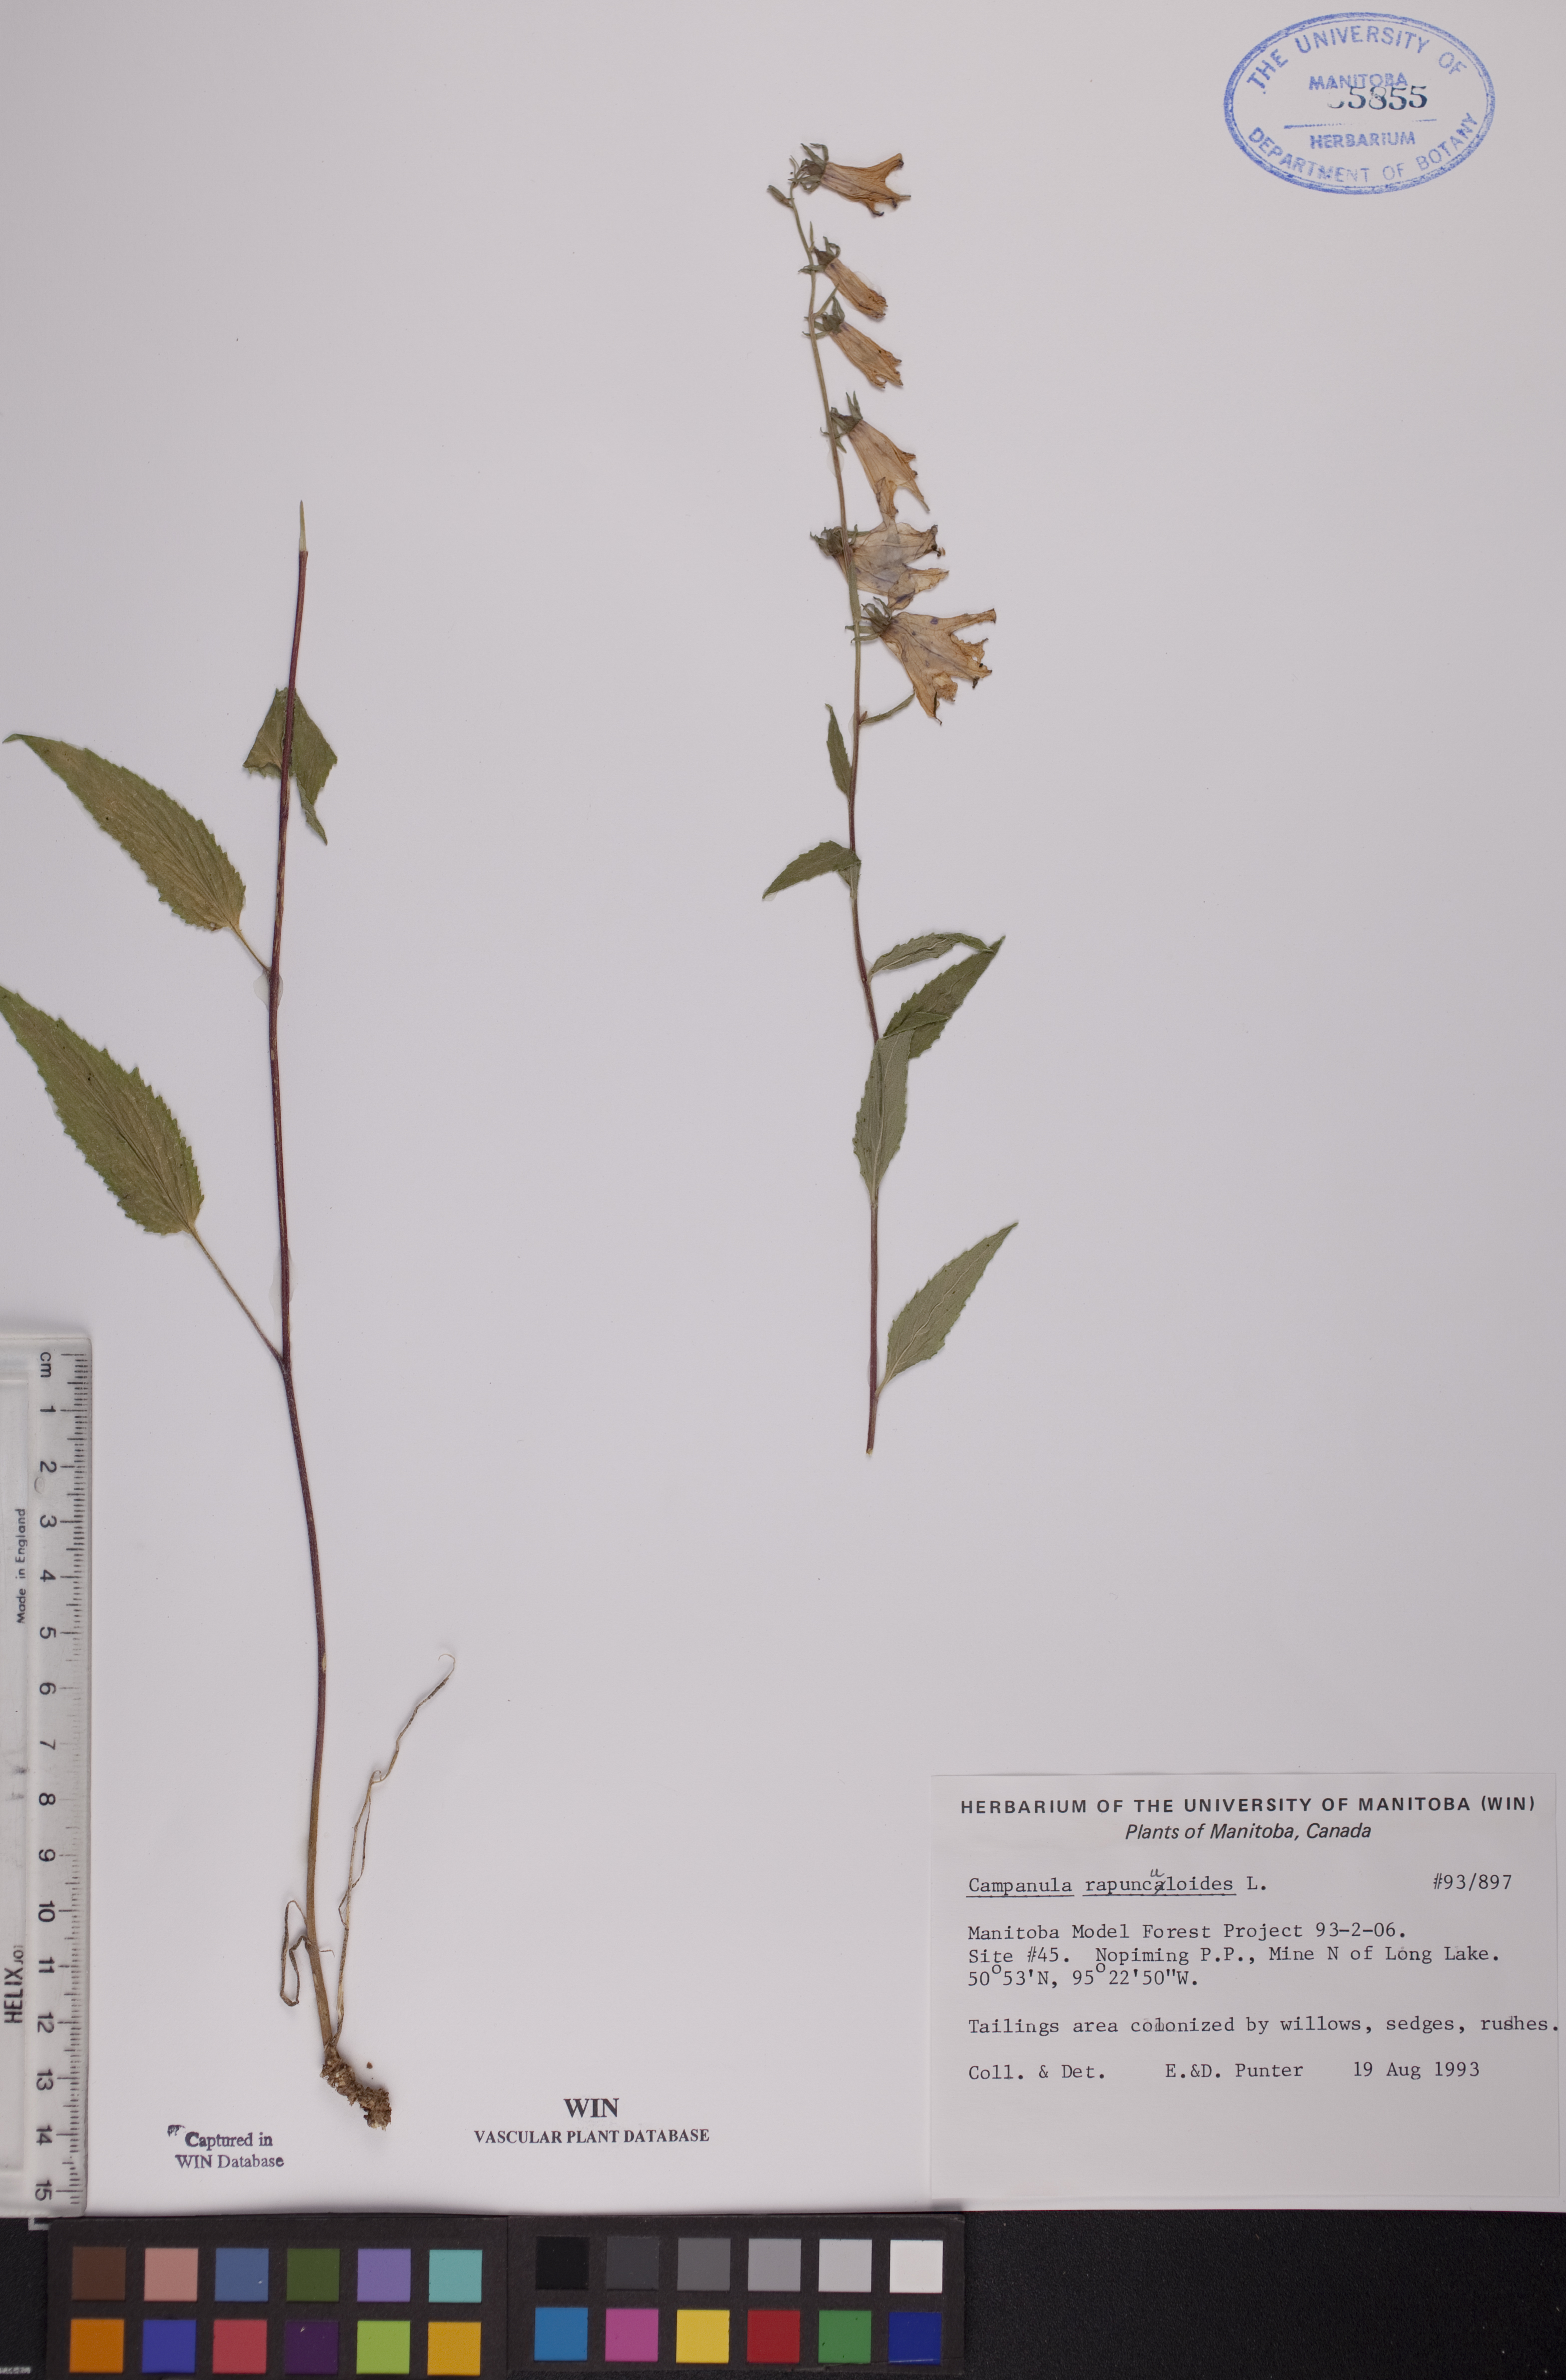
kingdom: Plantae
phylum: Tracheophyta
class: Magnoliopsida
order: Asterales
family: Campanulaceae
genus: Campanula
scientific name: Campanula rapunculoides
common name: Creeping bellflower
